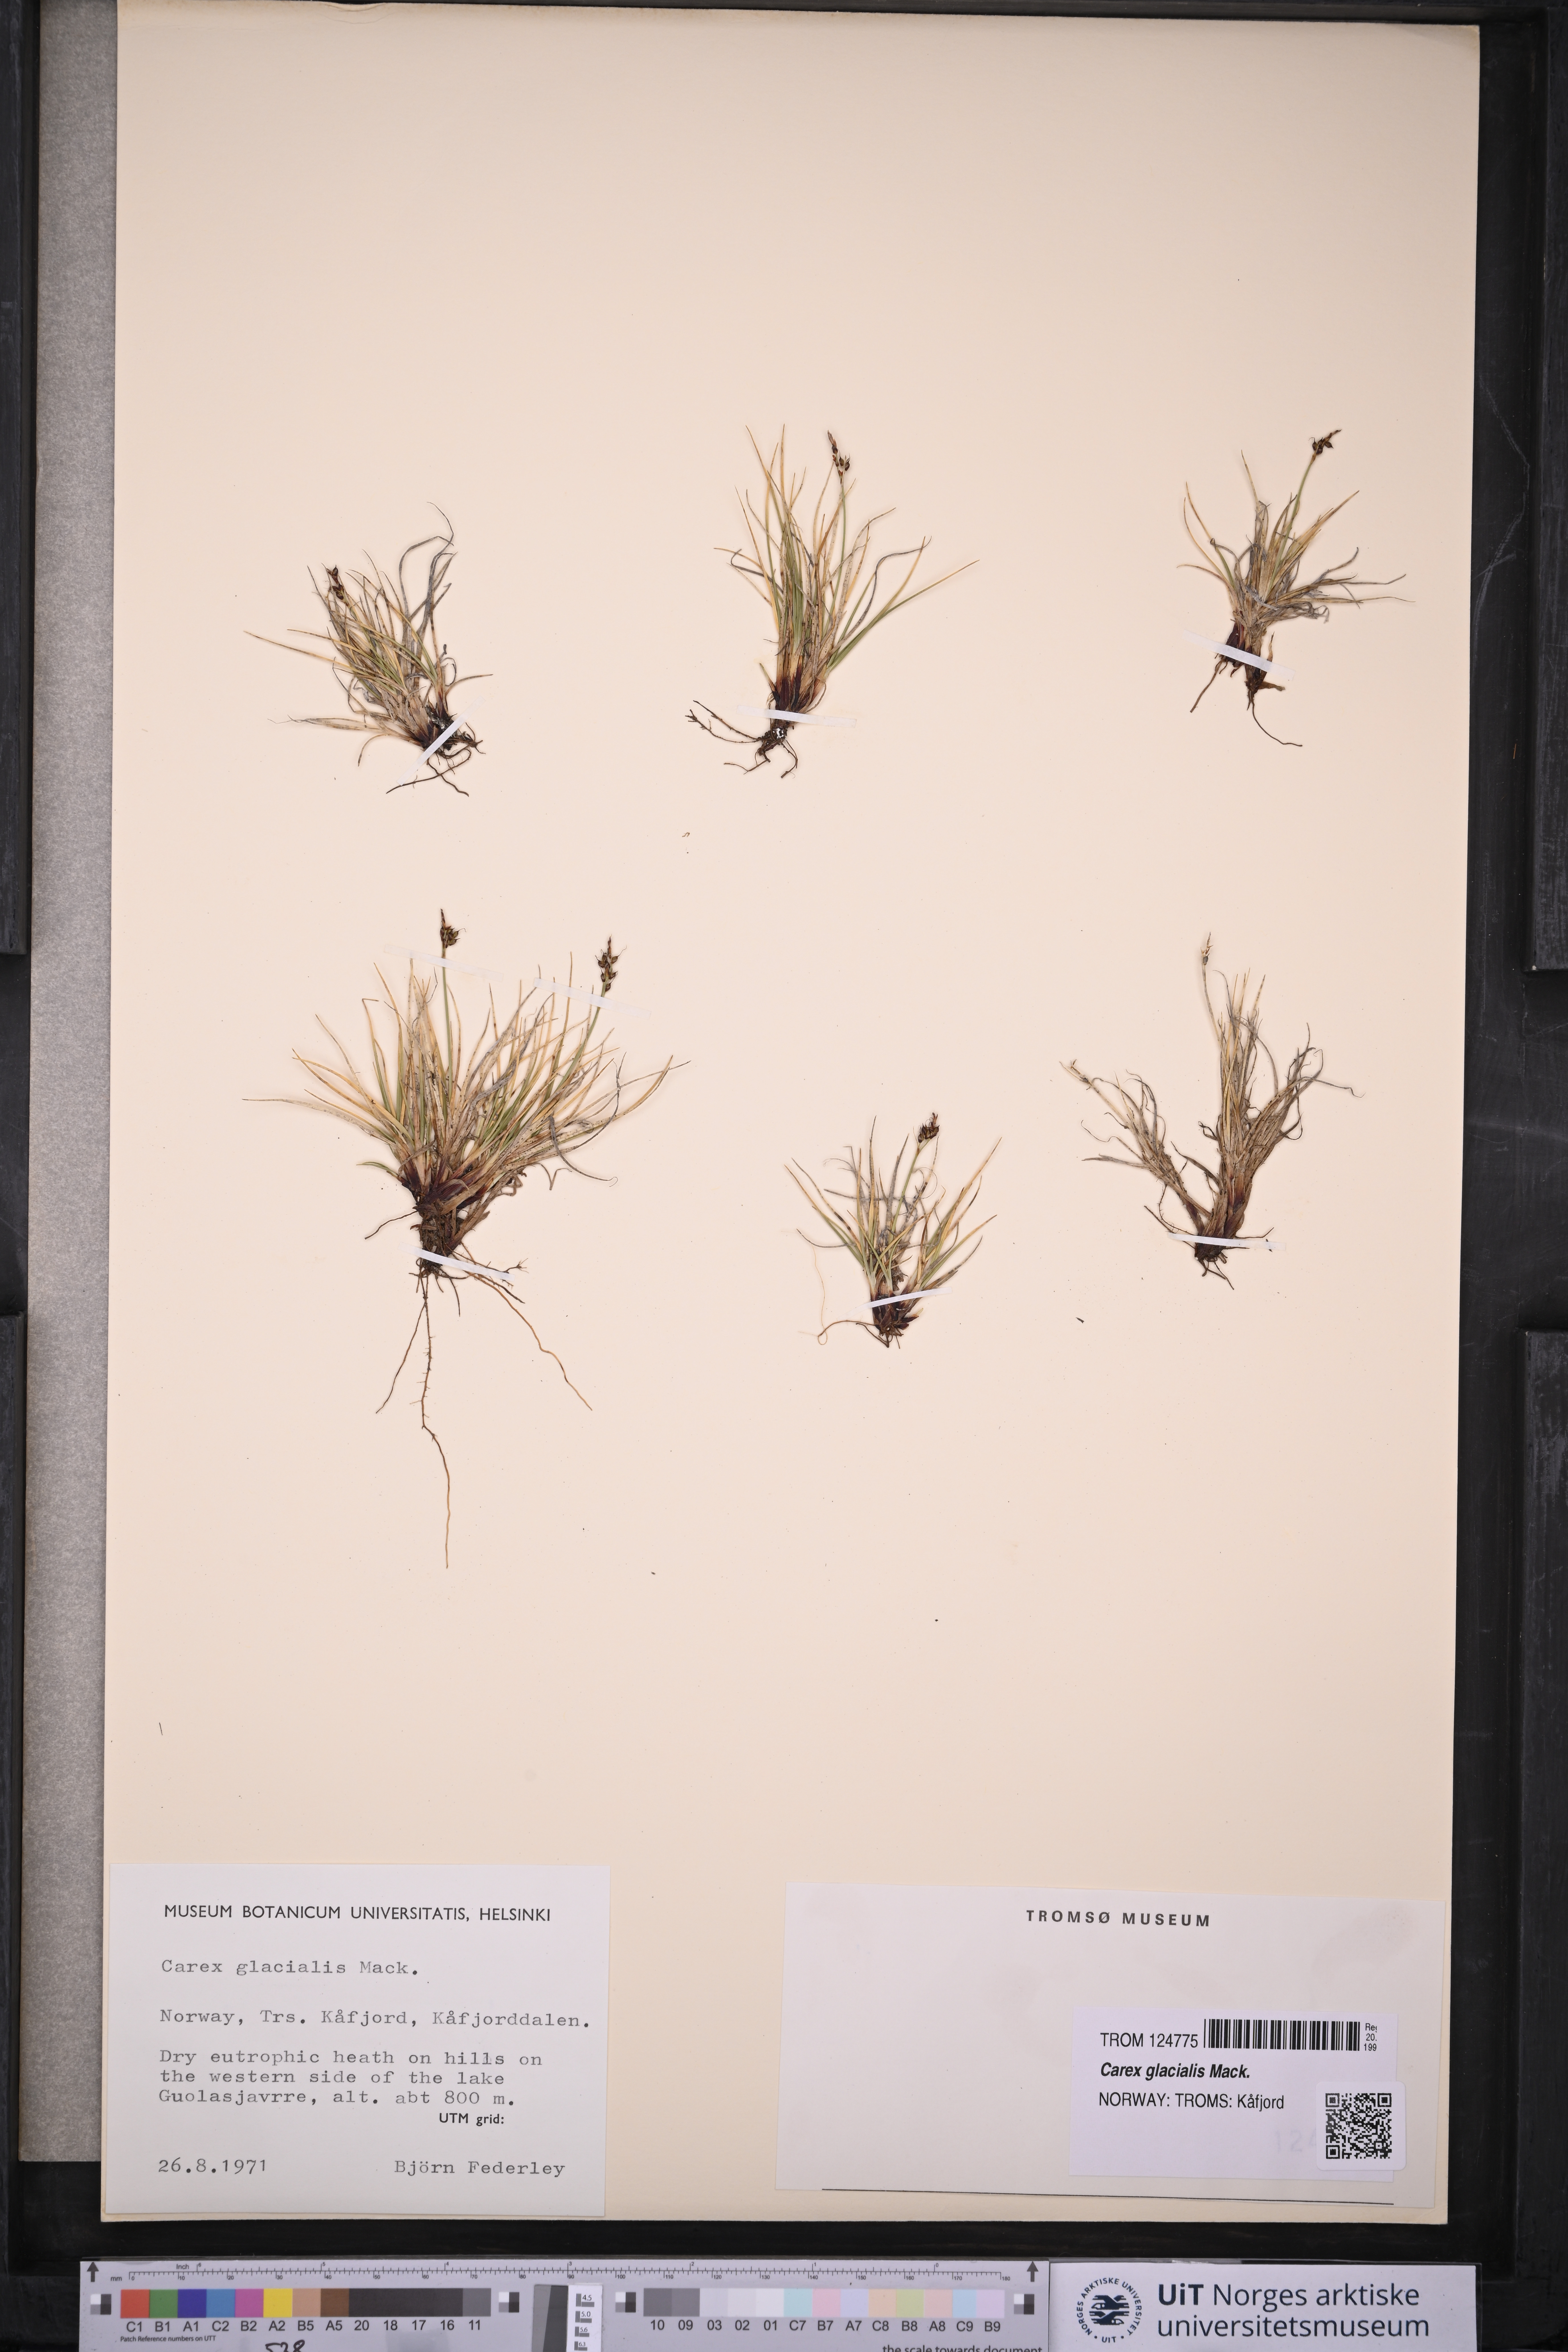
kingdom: Plantae
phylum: Tracheophyta
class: Liliopsida
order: Poales
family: Cyperaceae
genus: Carex
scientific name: Carex glacialis
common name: Newfoundland sedge
